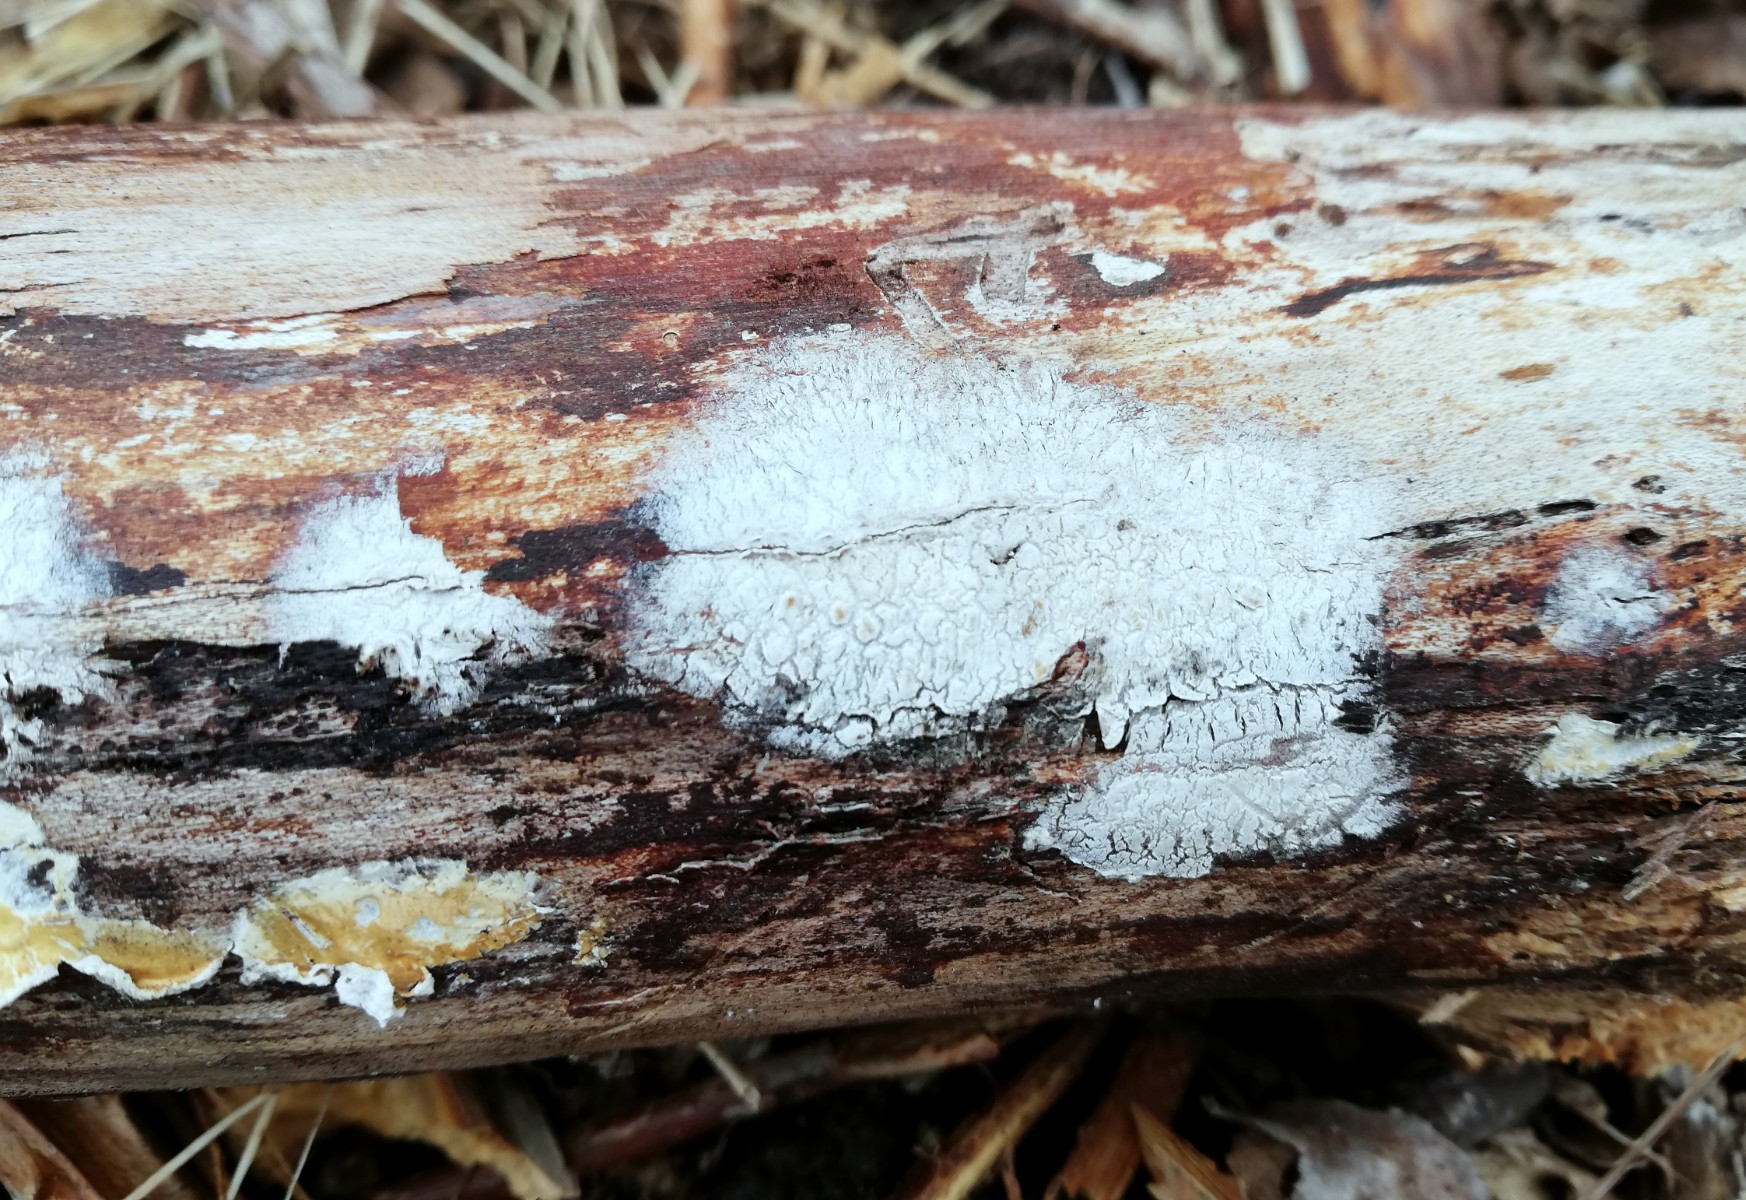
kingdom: Fungi
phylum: Basidiomycota
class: Agaricomycetes
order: Corticiales
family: Corticiaceae
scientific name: Corticiaceae
